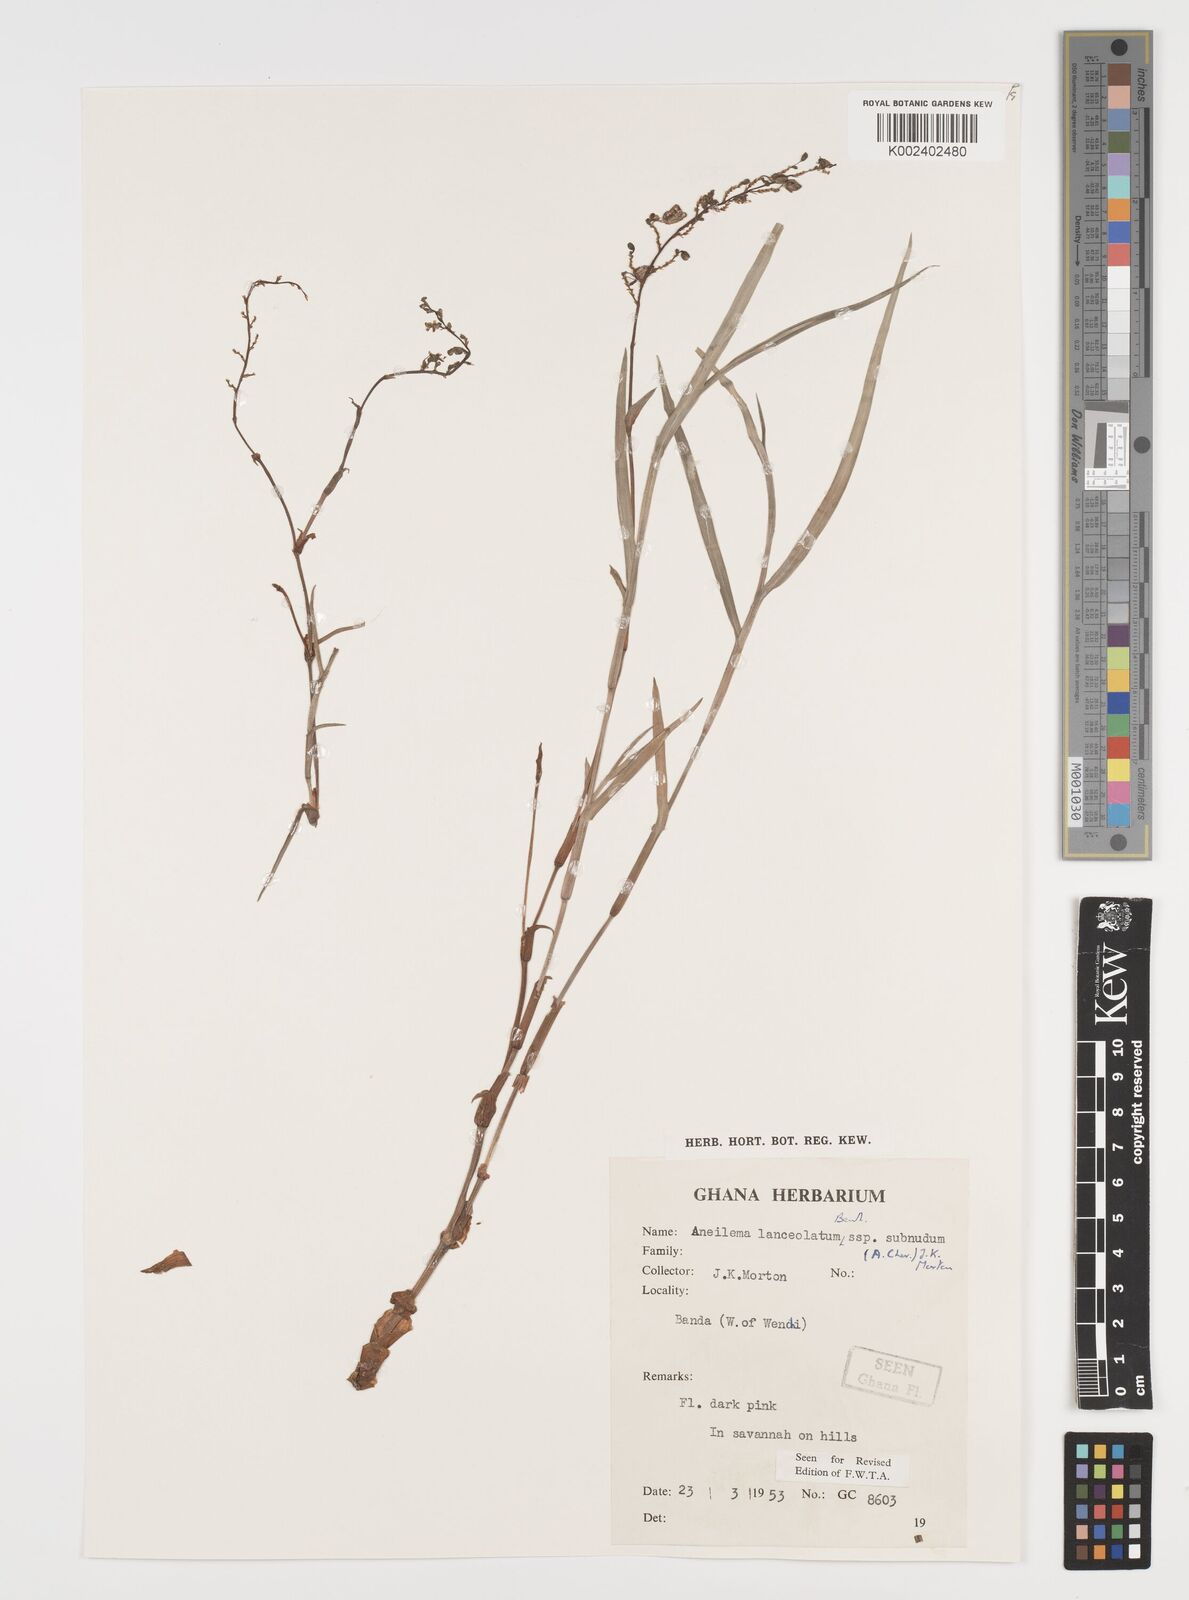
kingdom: Plantae
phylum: Tracheophyta
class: Liliopsida
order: Commelinales
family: Commelinaceae
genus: Aneilema
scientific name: Aneilema lanceolatum
